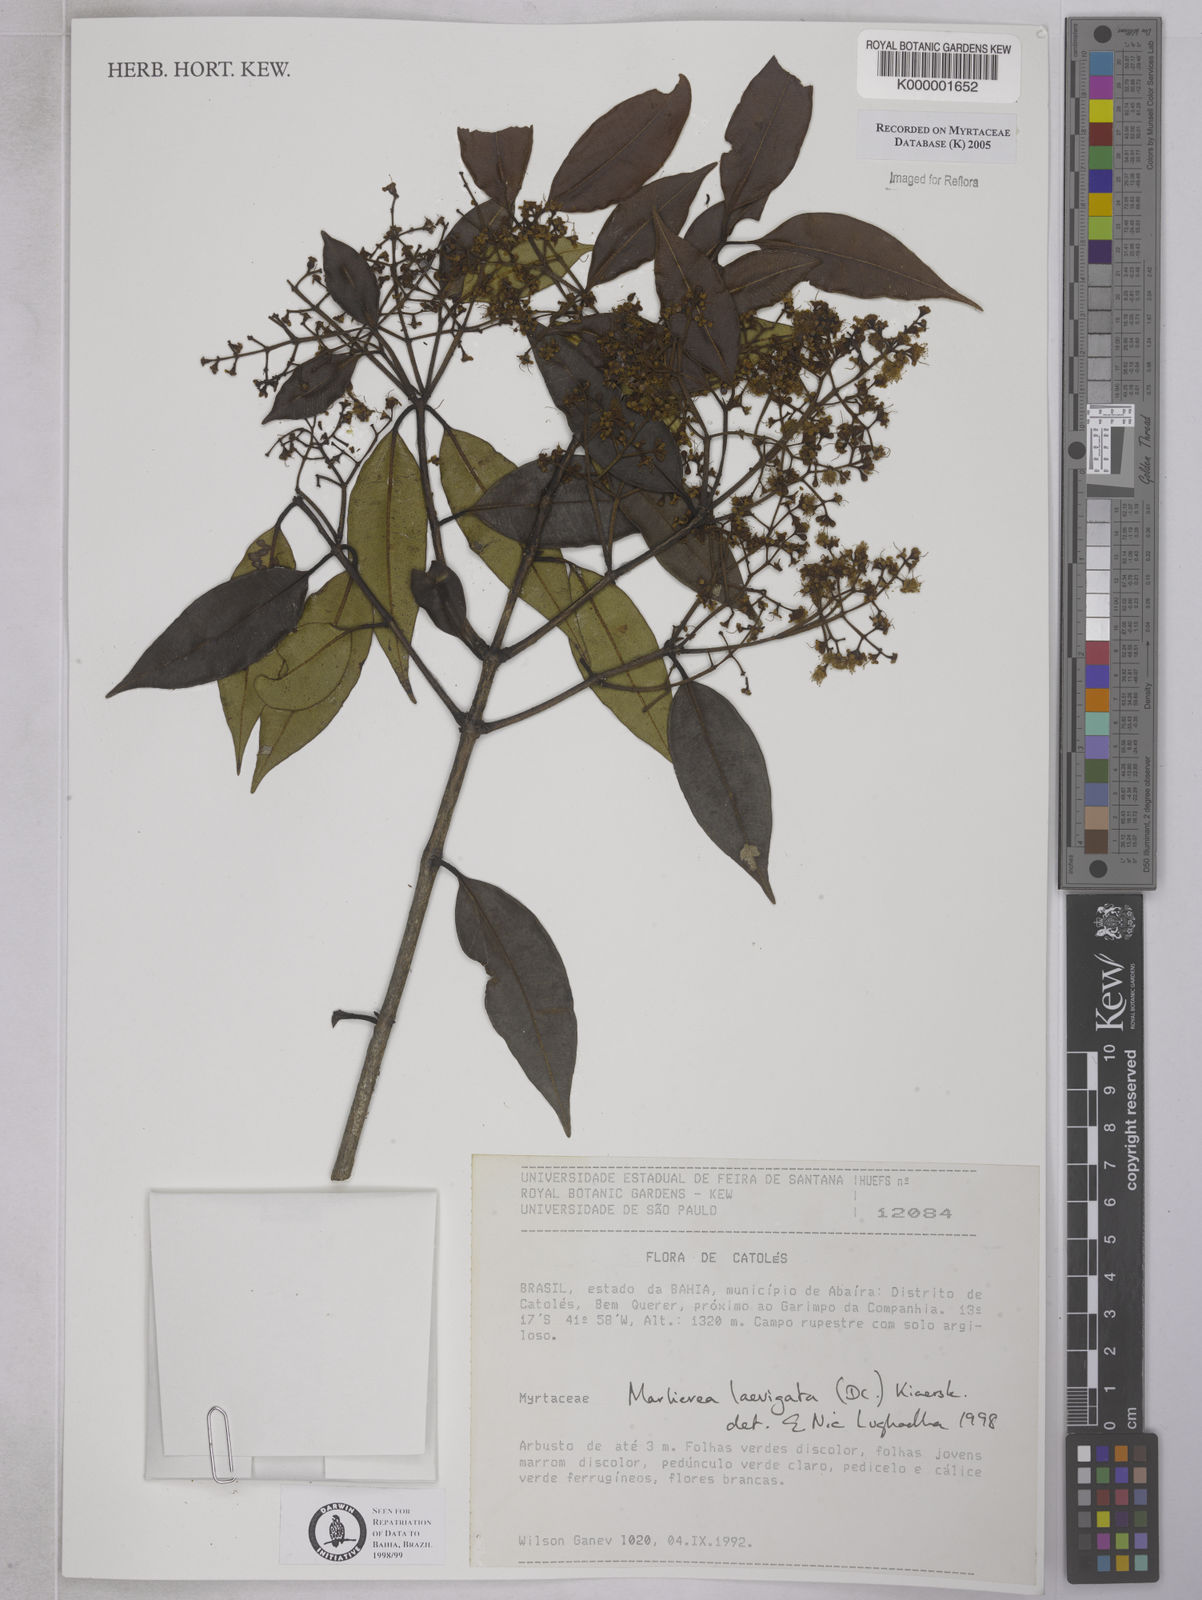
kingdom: Plantae
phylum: Tracheophyta
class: Magnoliopsida
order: Myrtales
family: Myrtaceae
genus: Myrcia
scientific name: Myrcia multipunctata
